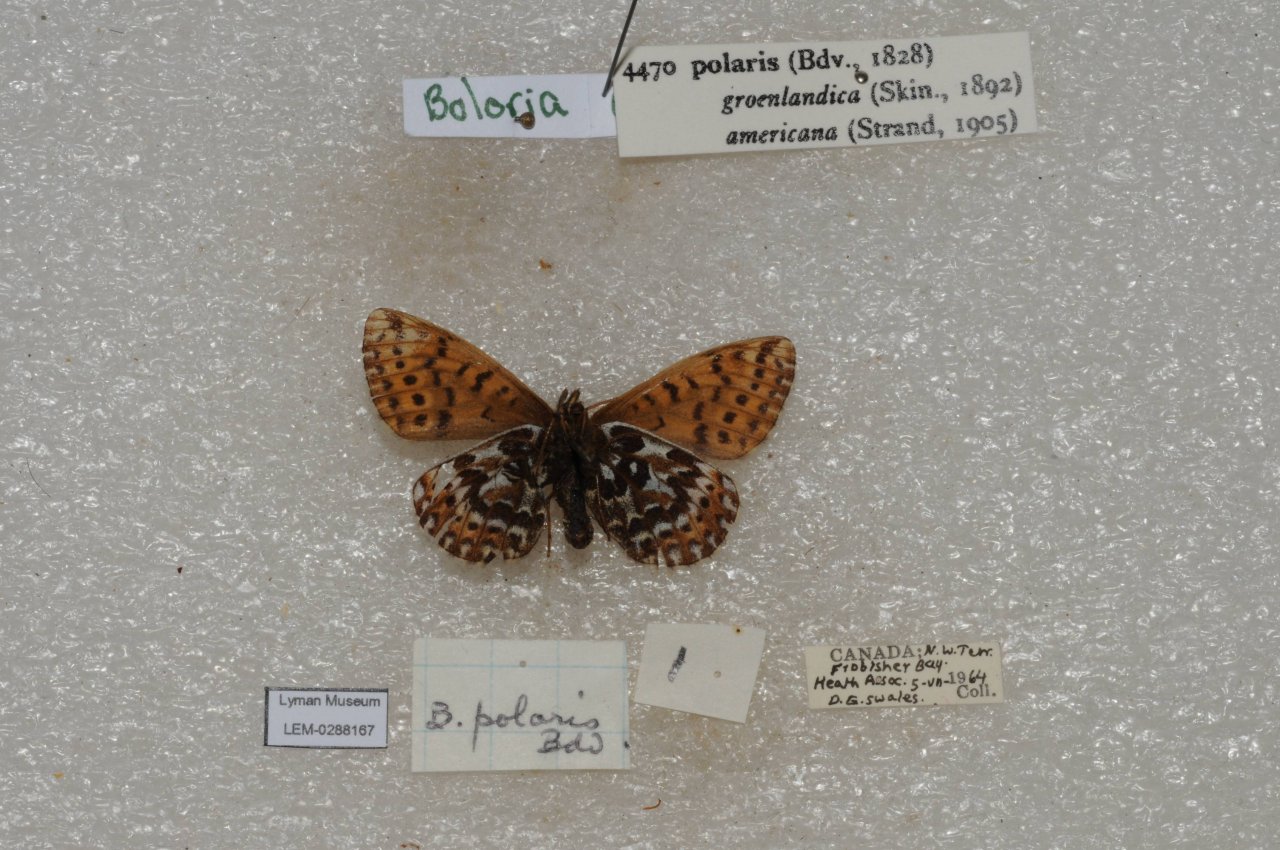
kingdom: Animalia
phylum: Arthropoda
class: Insecta
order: Lepidoptera
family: Nymphalidae
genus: Clossiana
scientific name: Clossiana polaris
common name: Polaris Fritillary
